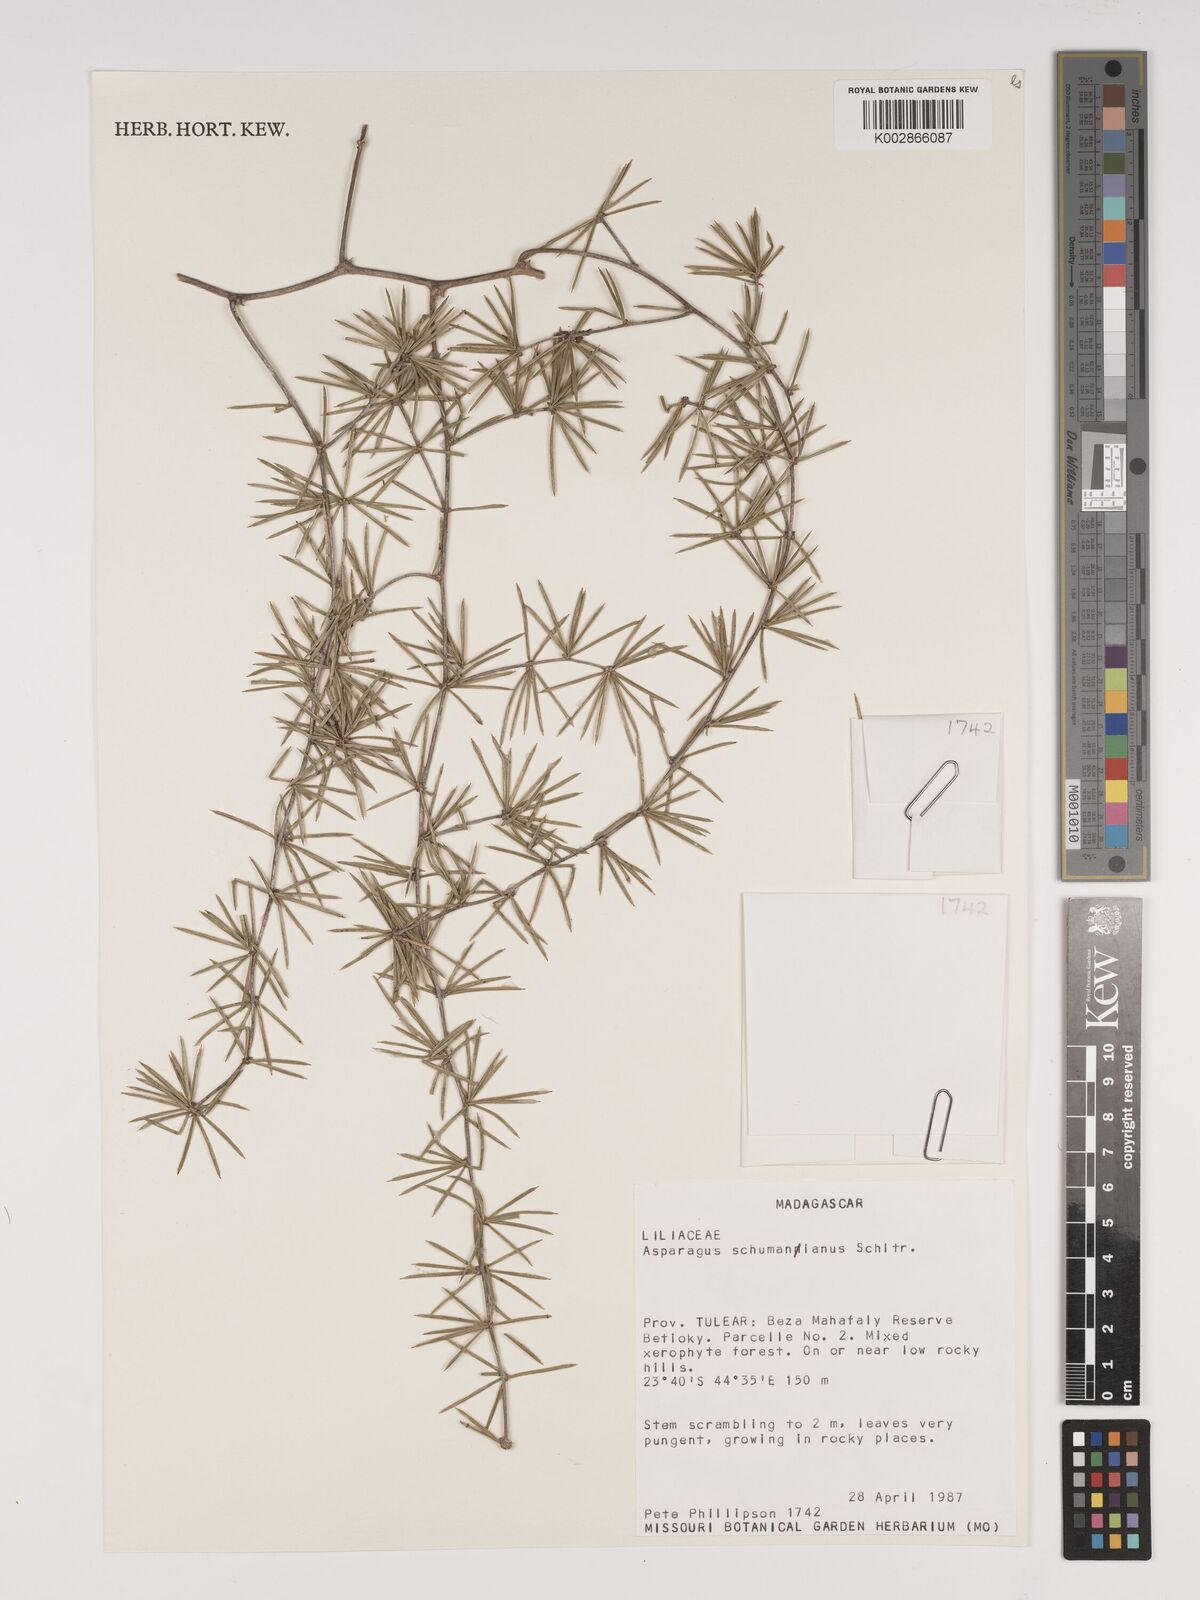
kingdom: Plantae
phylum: Tracheophyta
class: Liliopsida
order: Asparagales
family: Asparagaceae
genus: Asparagus
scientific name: Asparagus schumanianus
